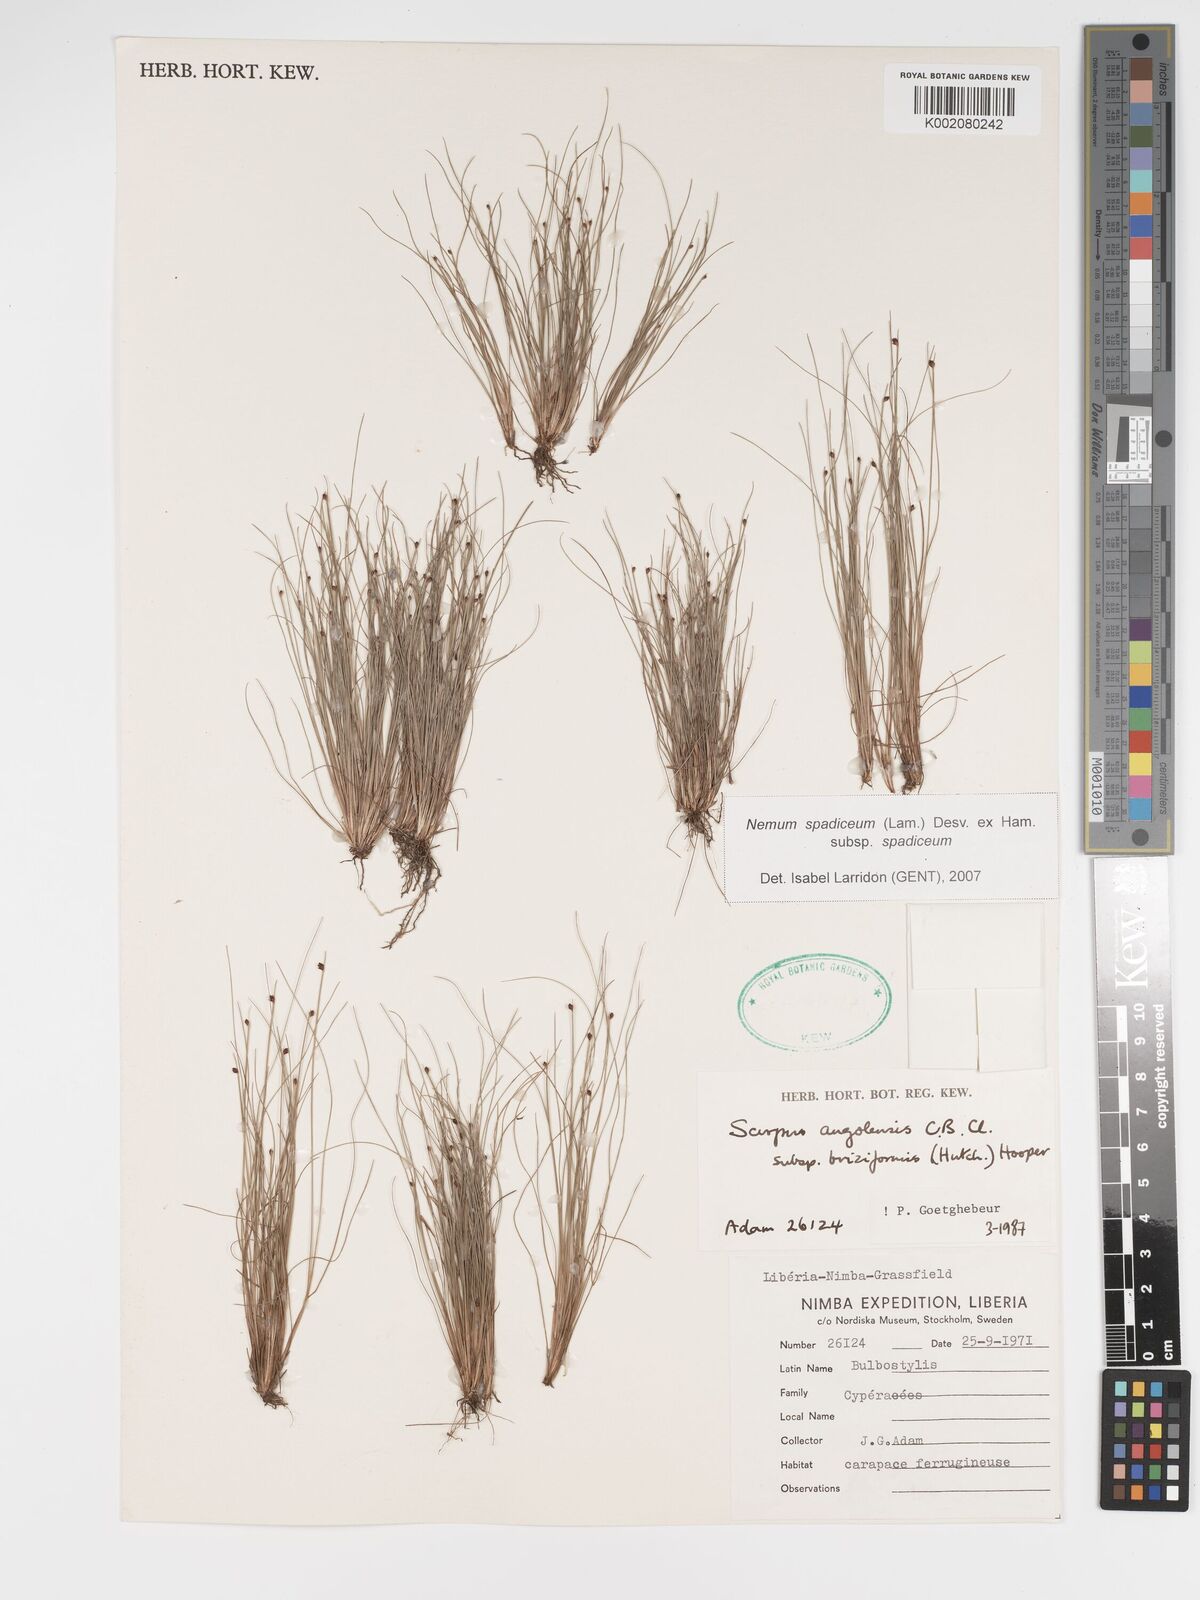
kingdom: Plantae
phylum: Tracheophyta
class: Liliopsida
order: Poales
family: Cyperaceae
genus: Bulbostylis
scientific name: Bulbostylis briziformis
